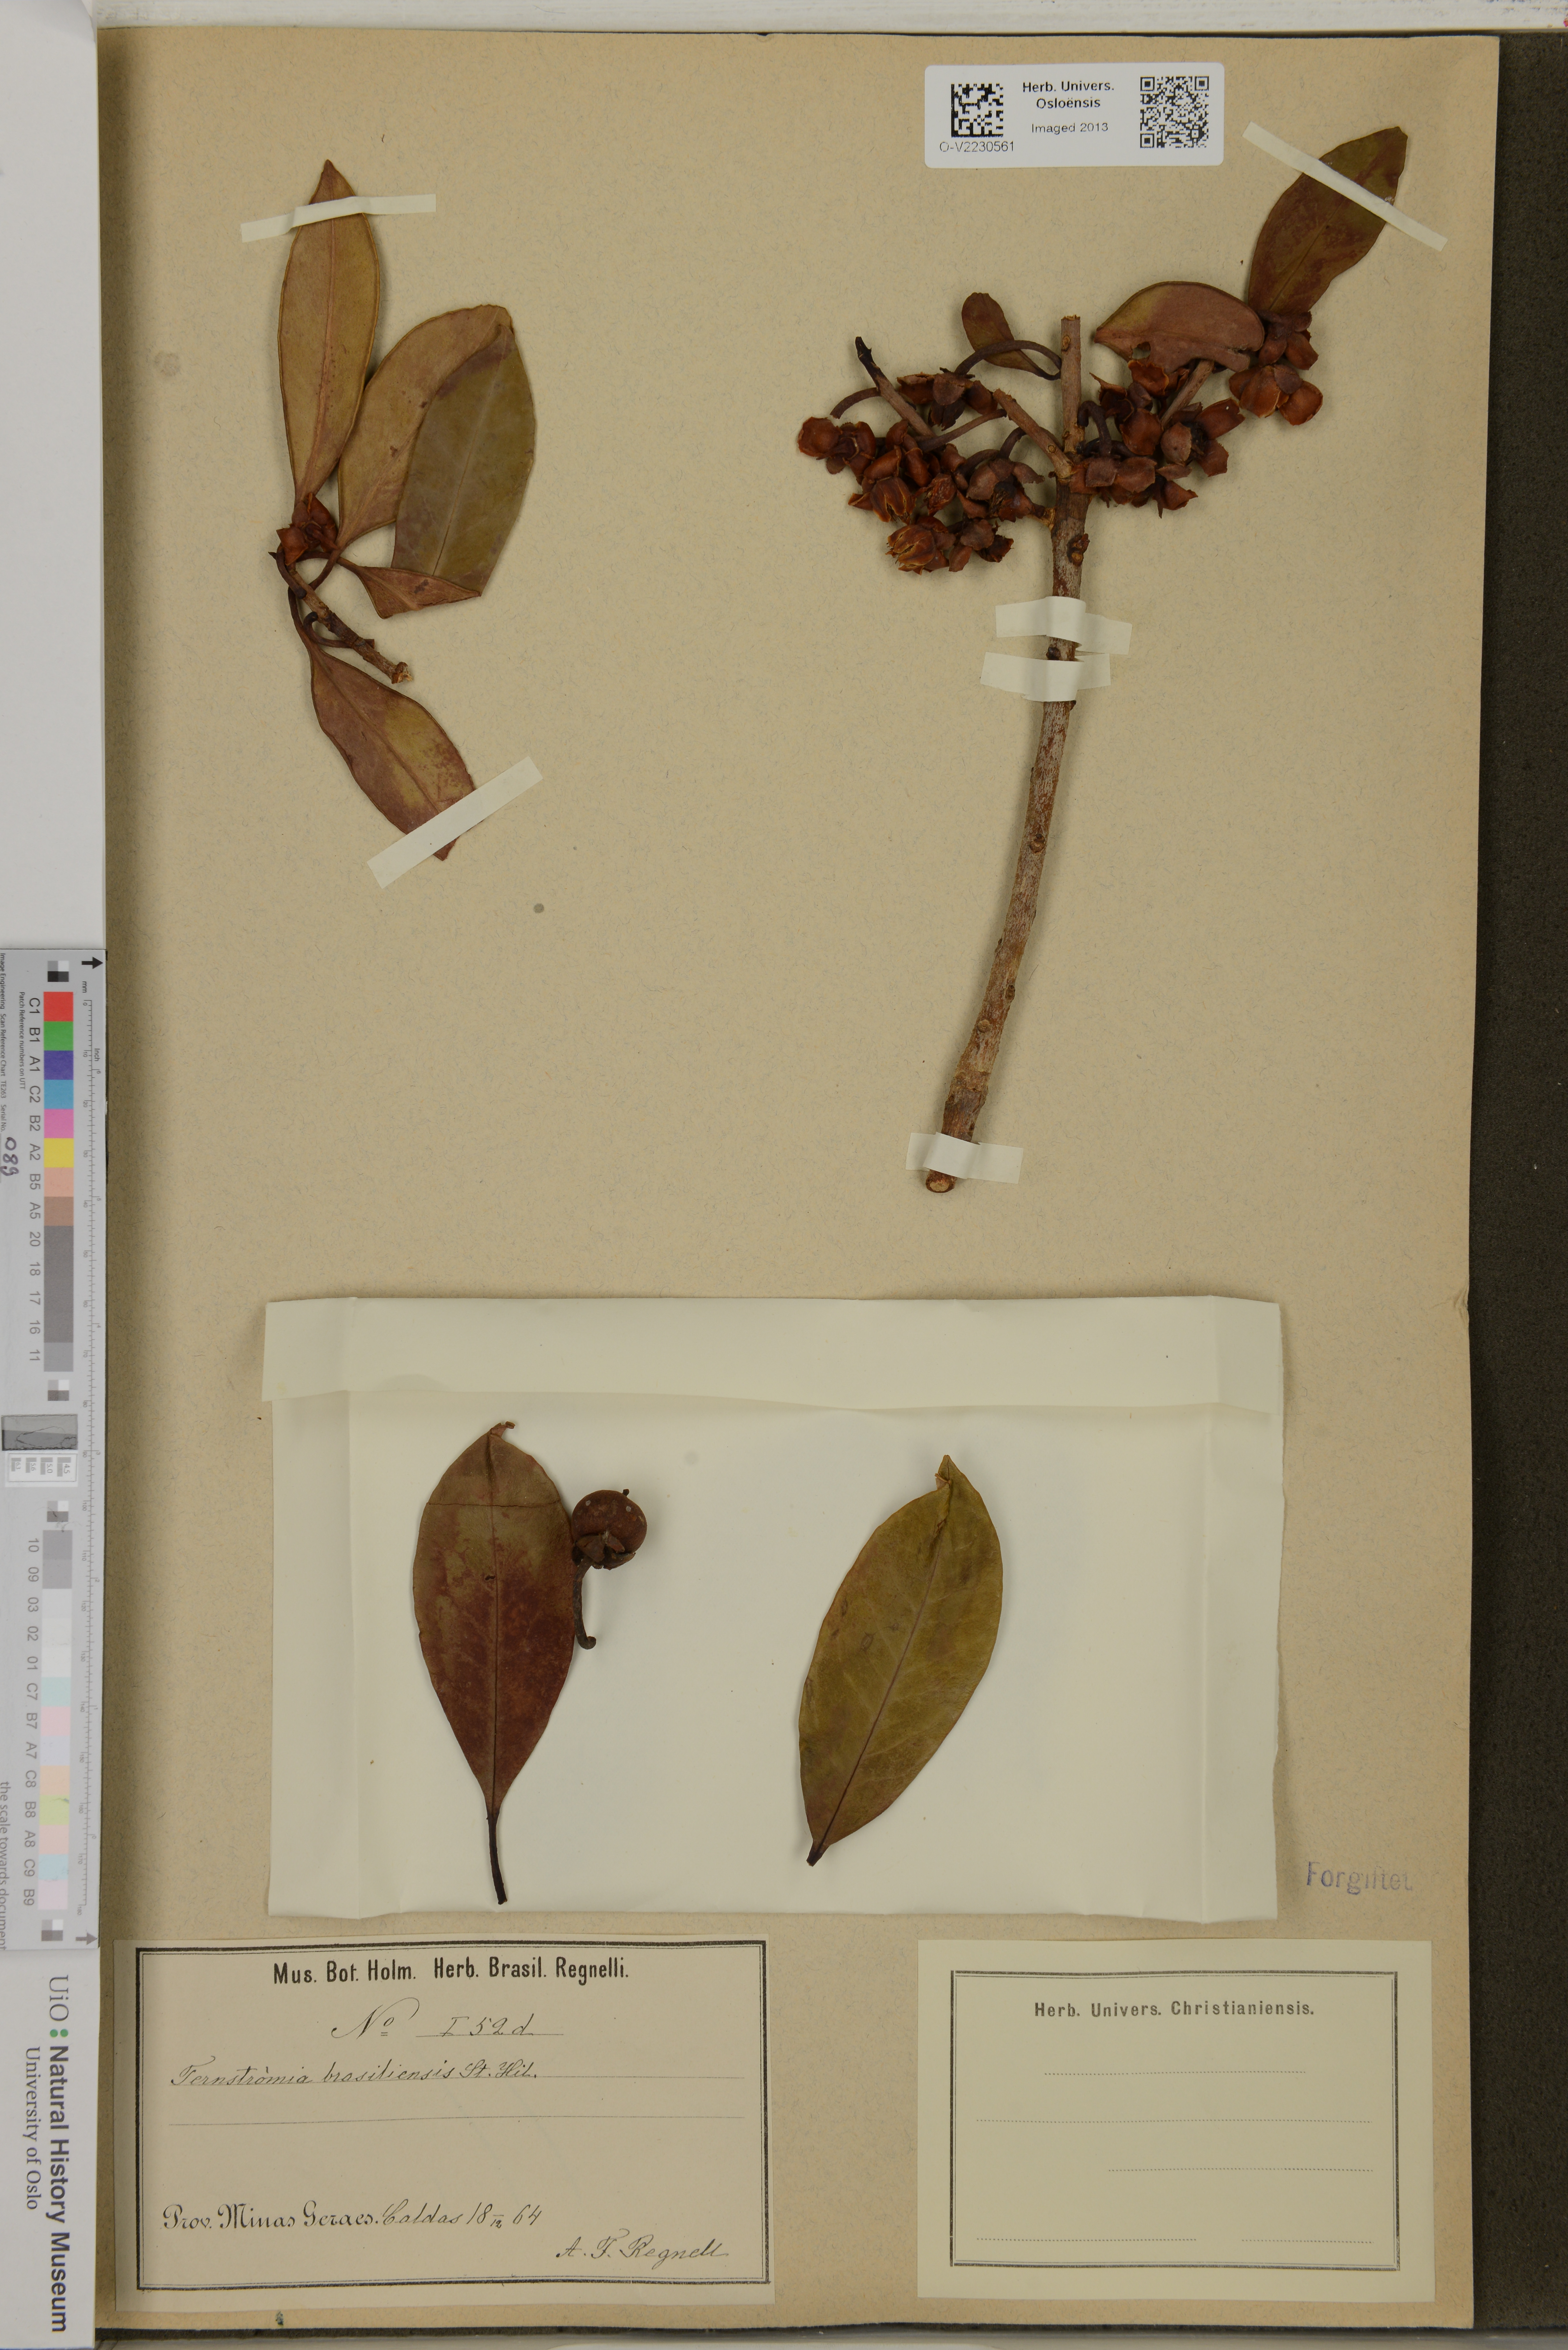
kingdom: Plantae
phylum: Tracheophyta
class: Magnoliopsida
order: Ericales
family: Pentaphylacaceae
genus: Ternstroemia
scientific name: Ternstroemia brasiliensis
